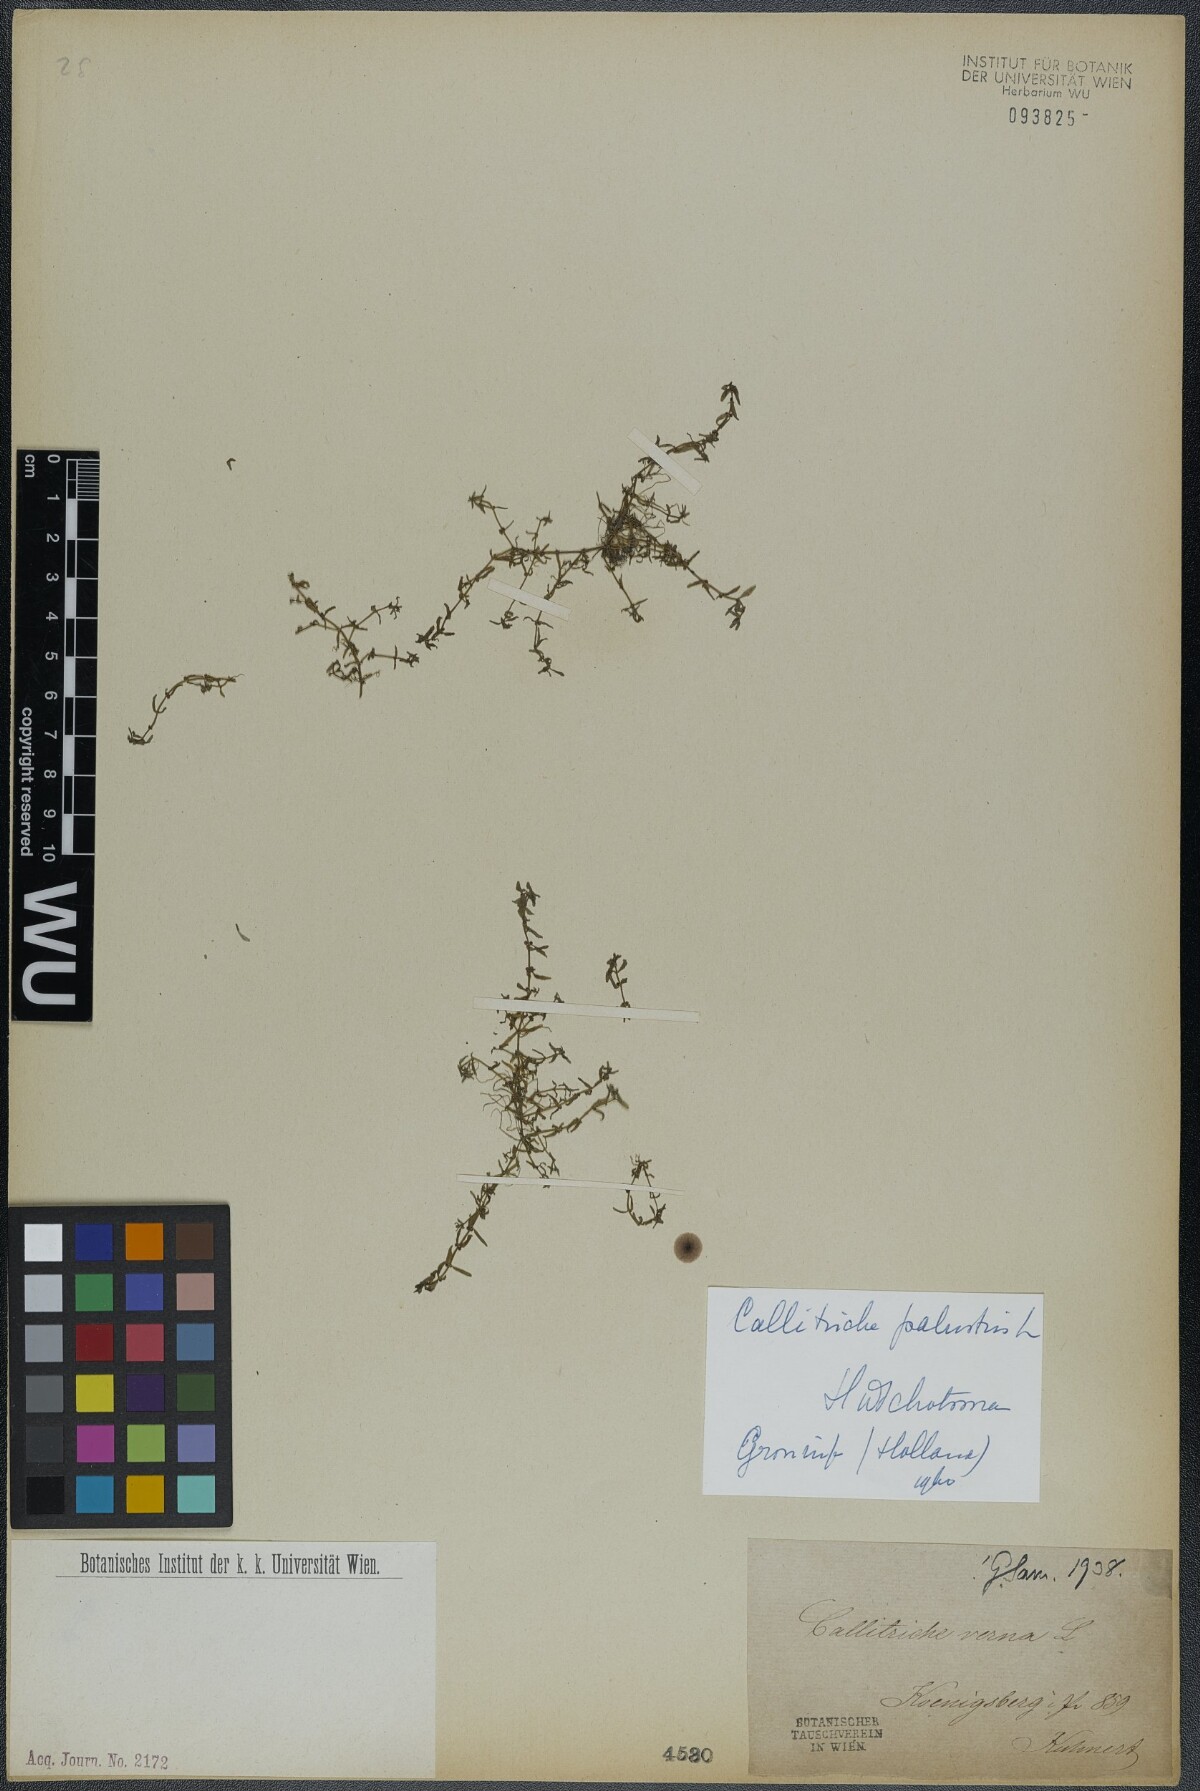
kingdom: Plantae
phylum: Tracheophyta
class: Magnoliopsida
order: Lamiales
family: Plantaginaceae
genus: Callitriche
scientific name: Callitriche palustris
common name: Spring water-starwort
